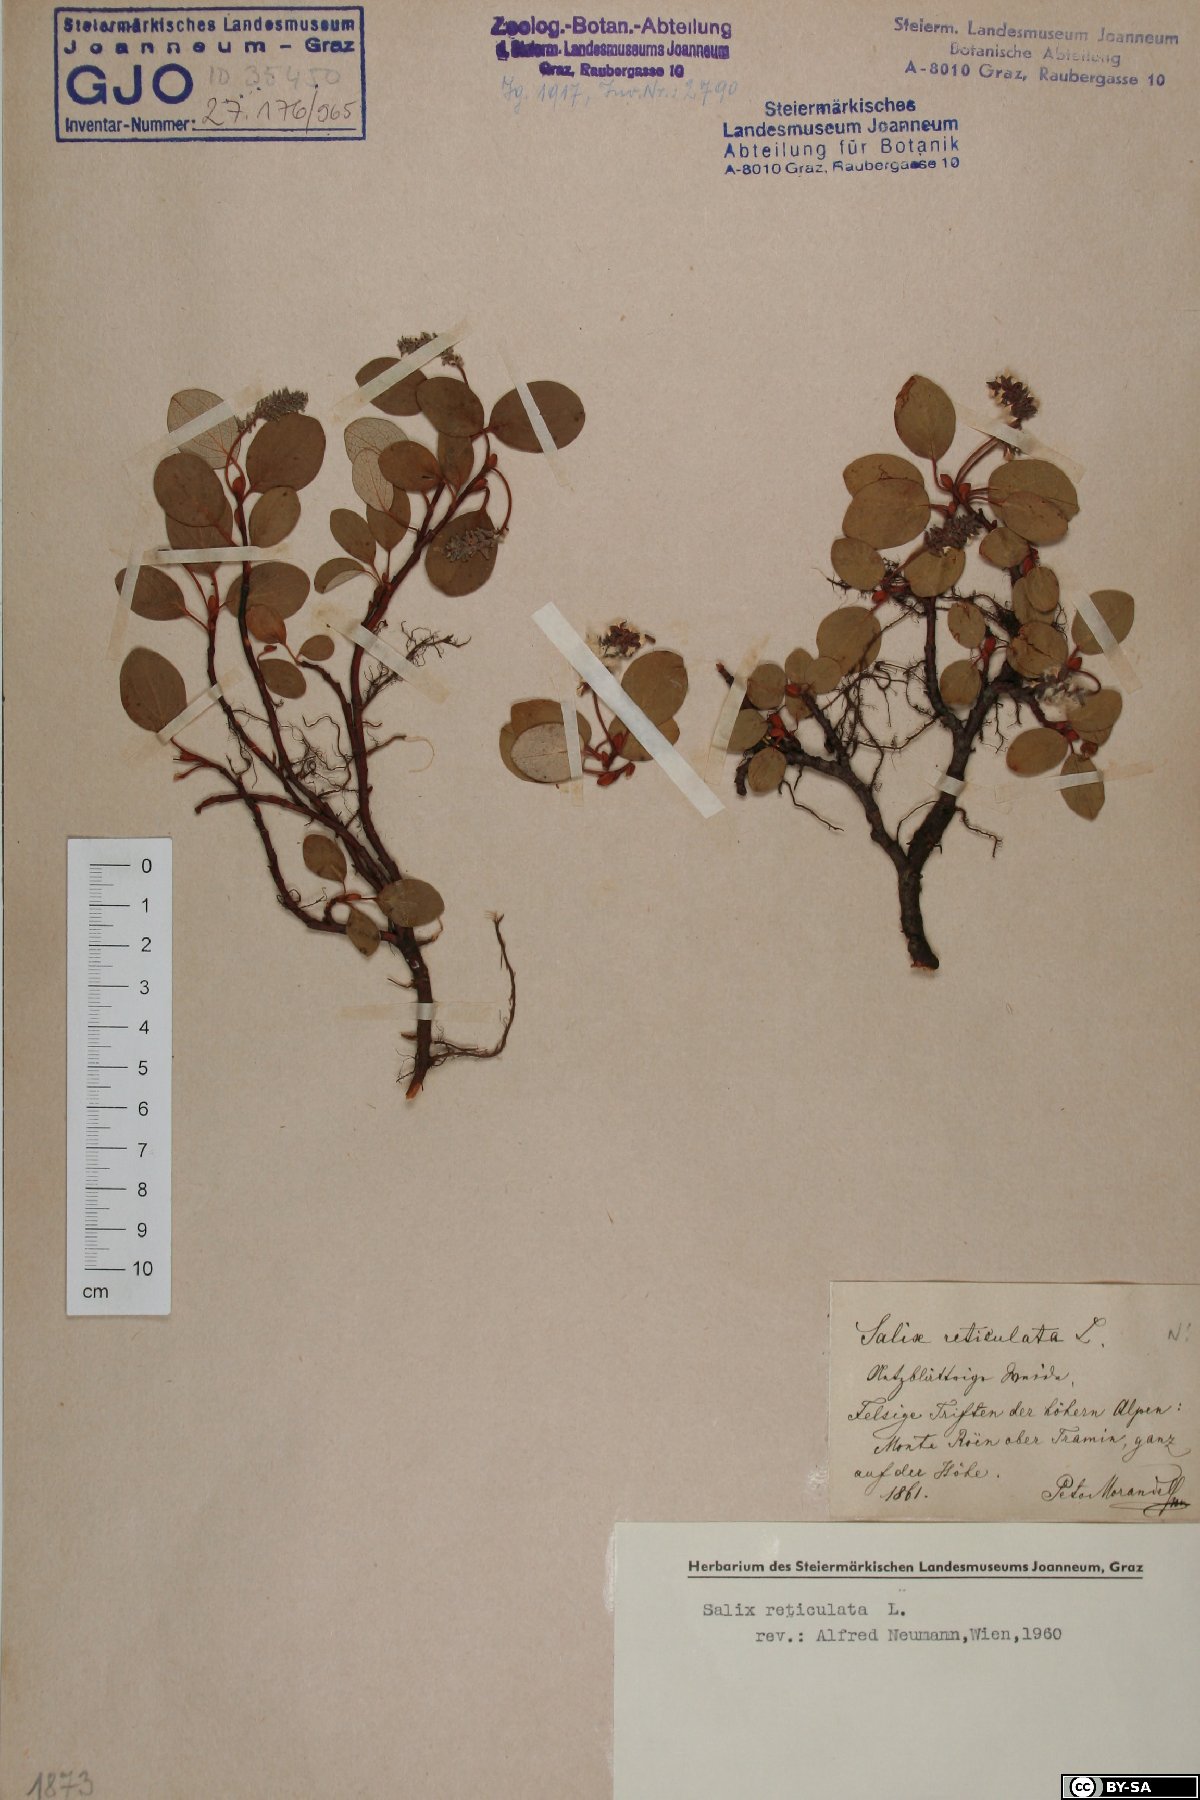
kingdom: Plantae
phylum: Tracheophyta
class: Magnoliopsida
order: Malpighiales
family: Salicaceae
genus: Salix
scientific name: Salix reticulata
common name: Net-leaved willow
